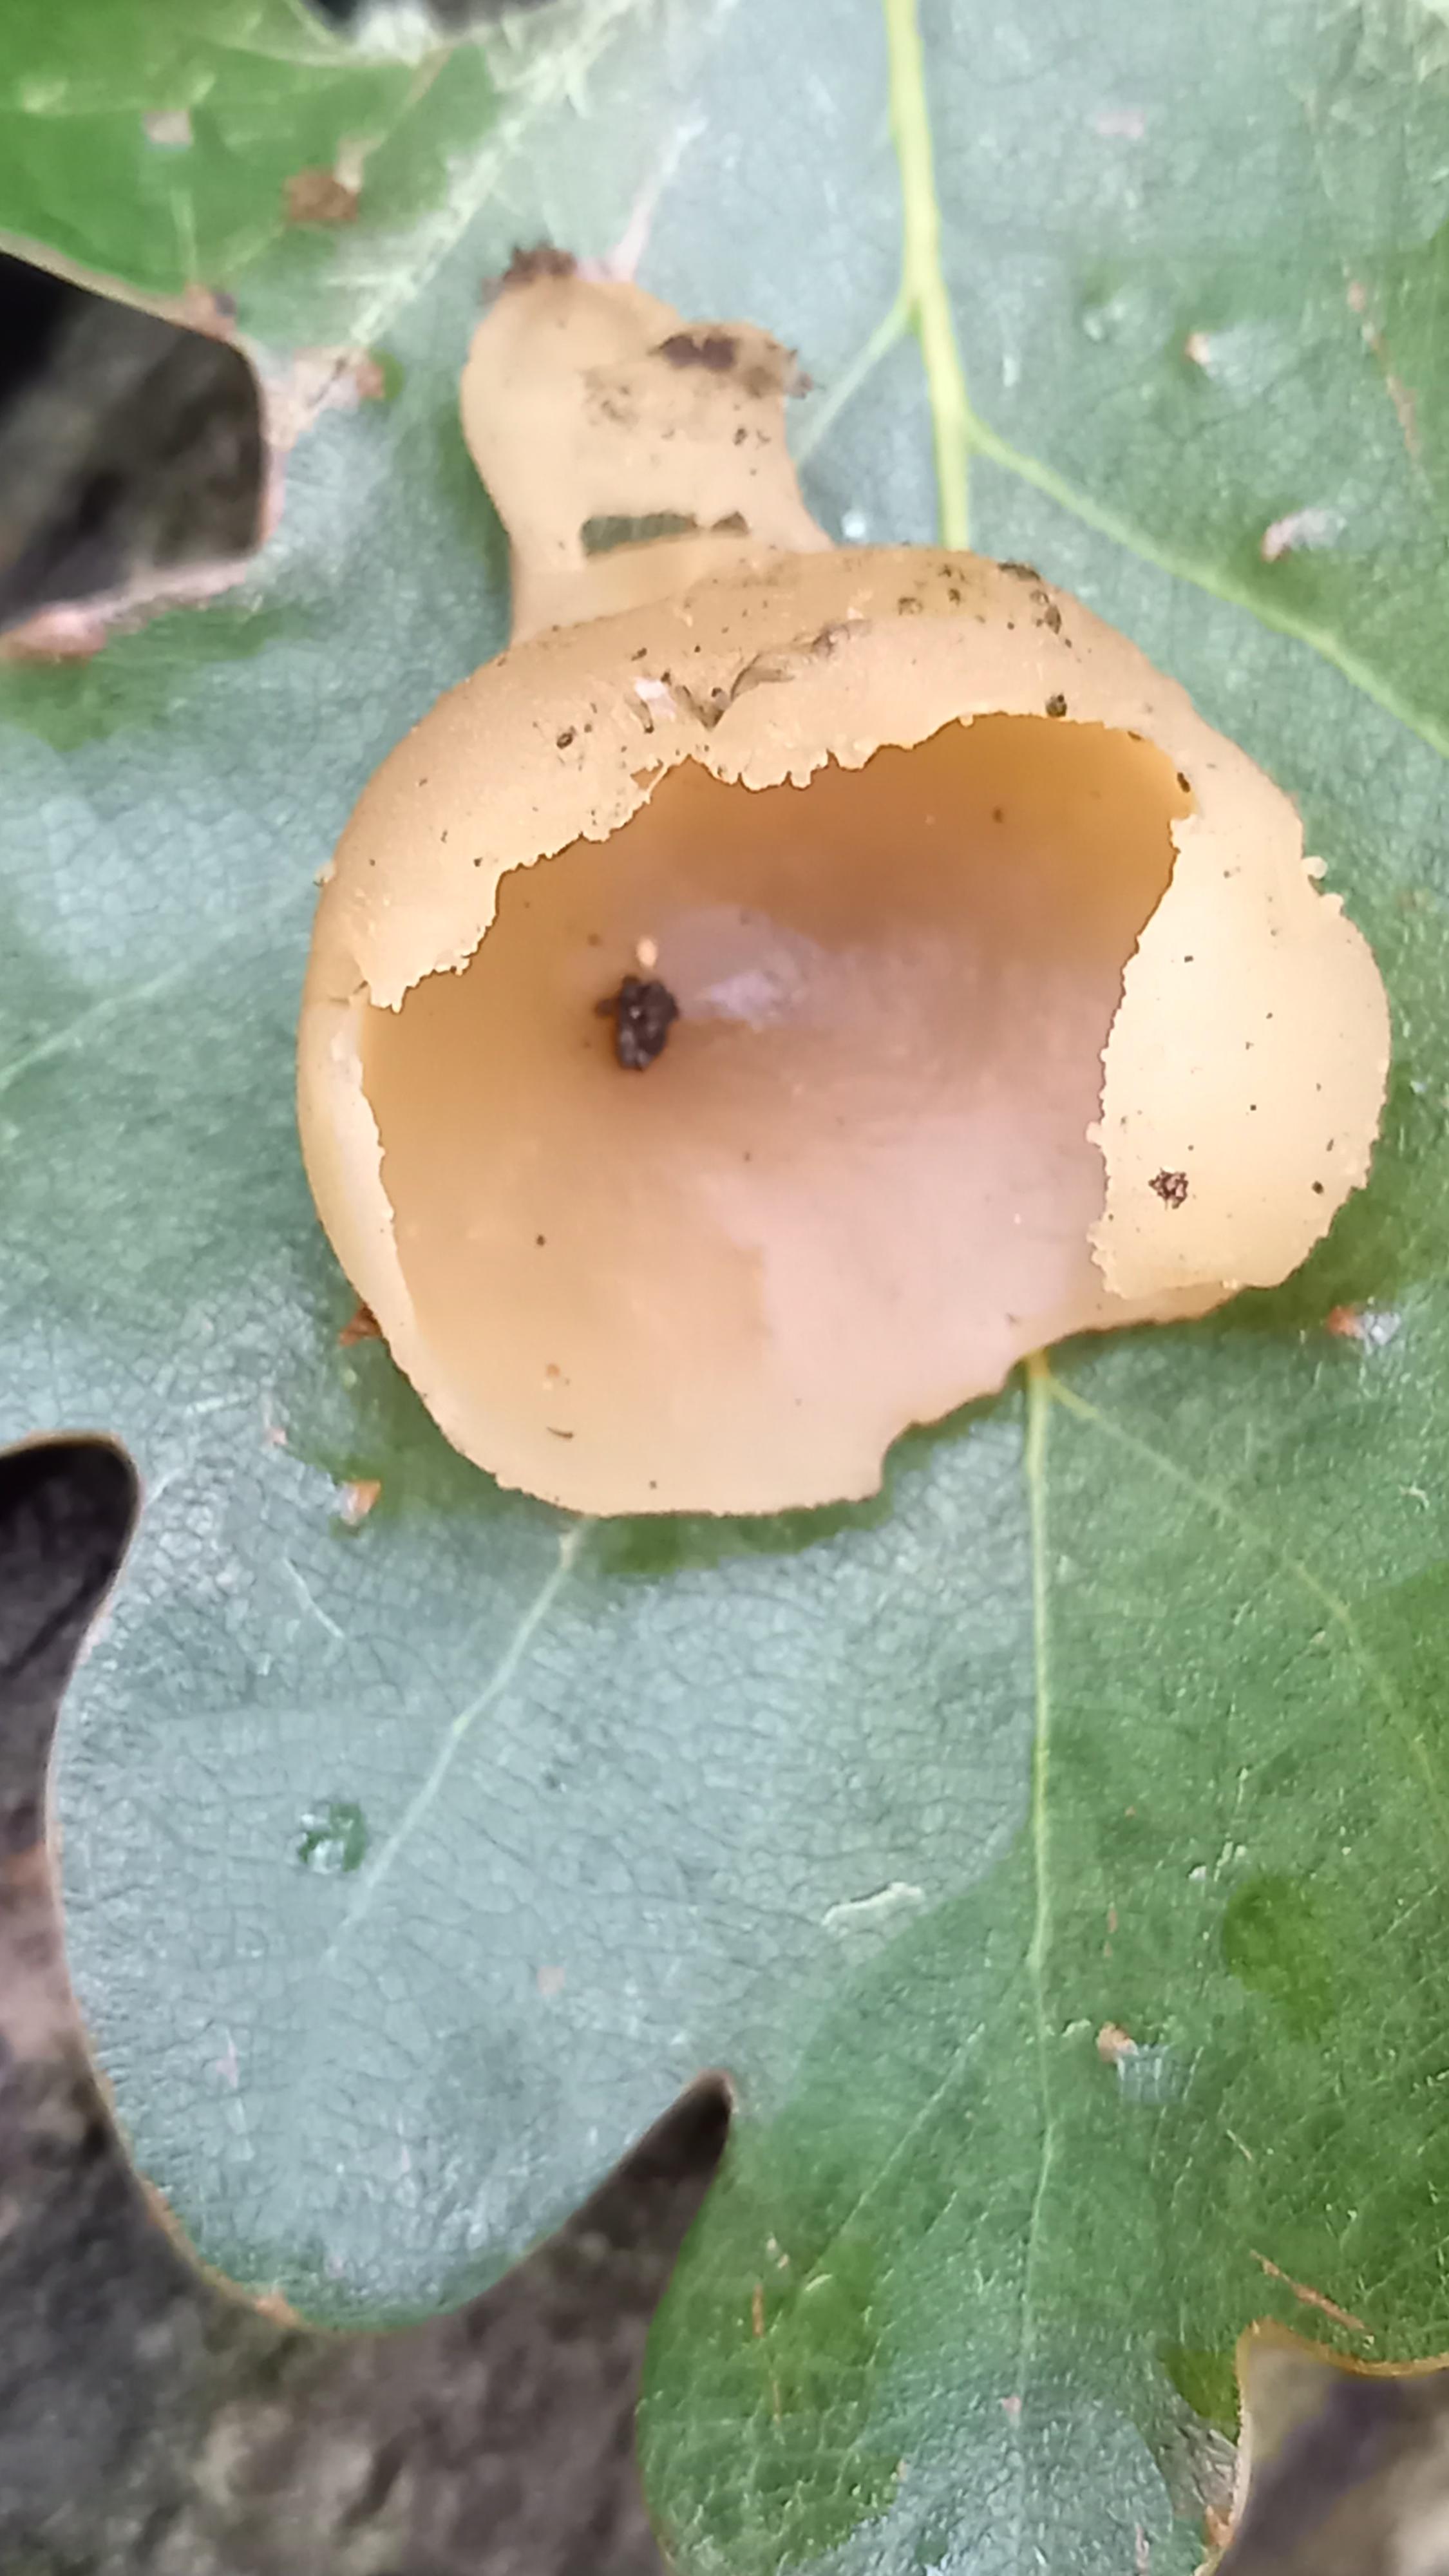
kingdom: Fungi
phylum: Ascomycota
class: Pezizomycetes
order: Pezizales
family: Pezizaceae
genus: Peziza
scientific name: Peziza varia
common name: Ved-bægersvamp
